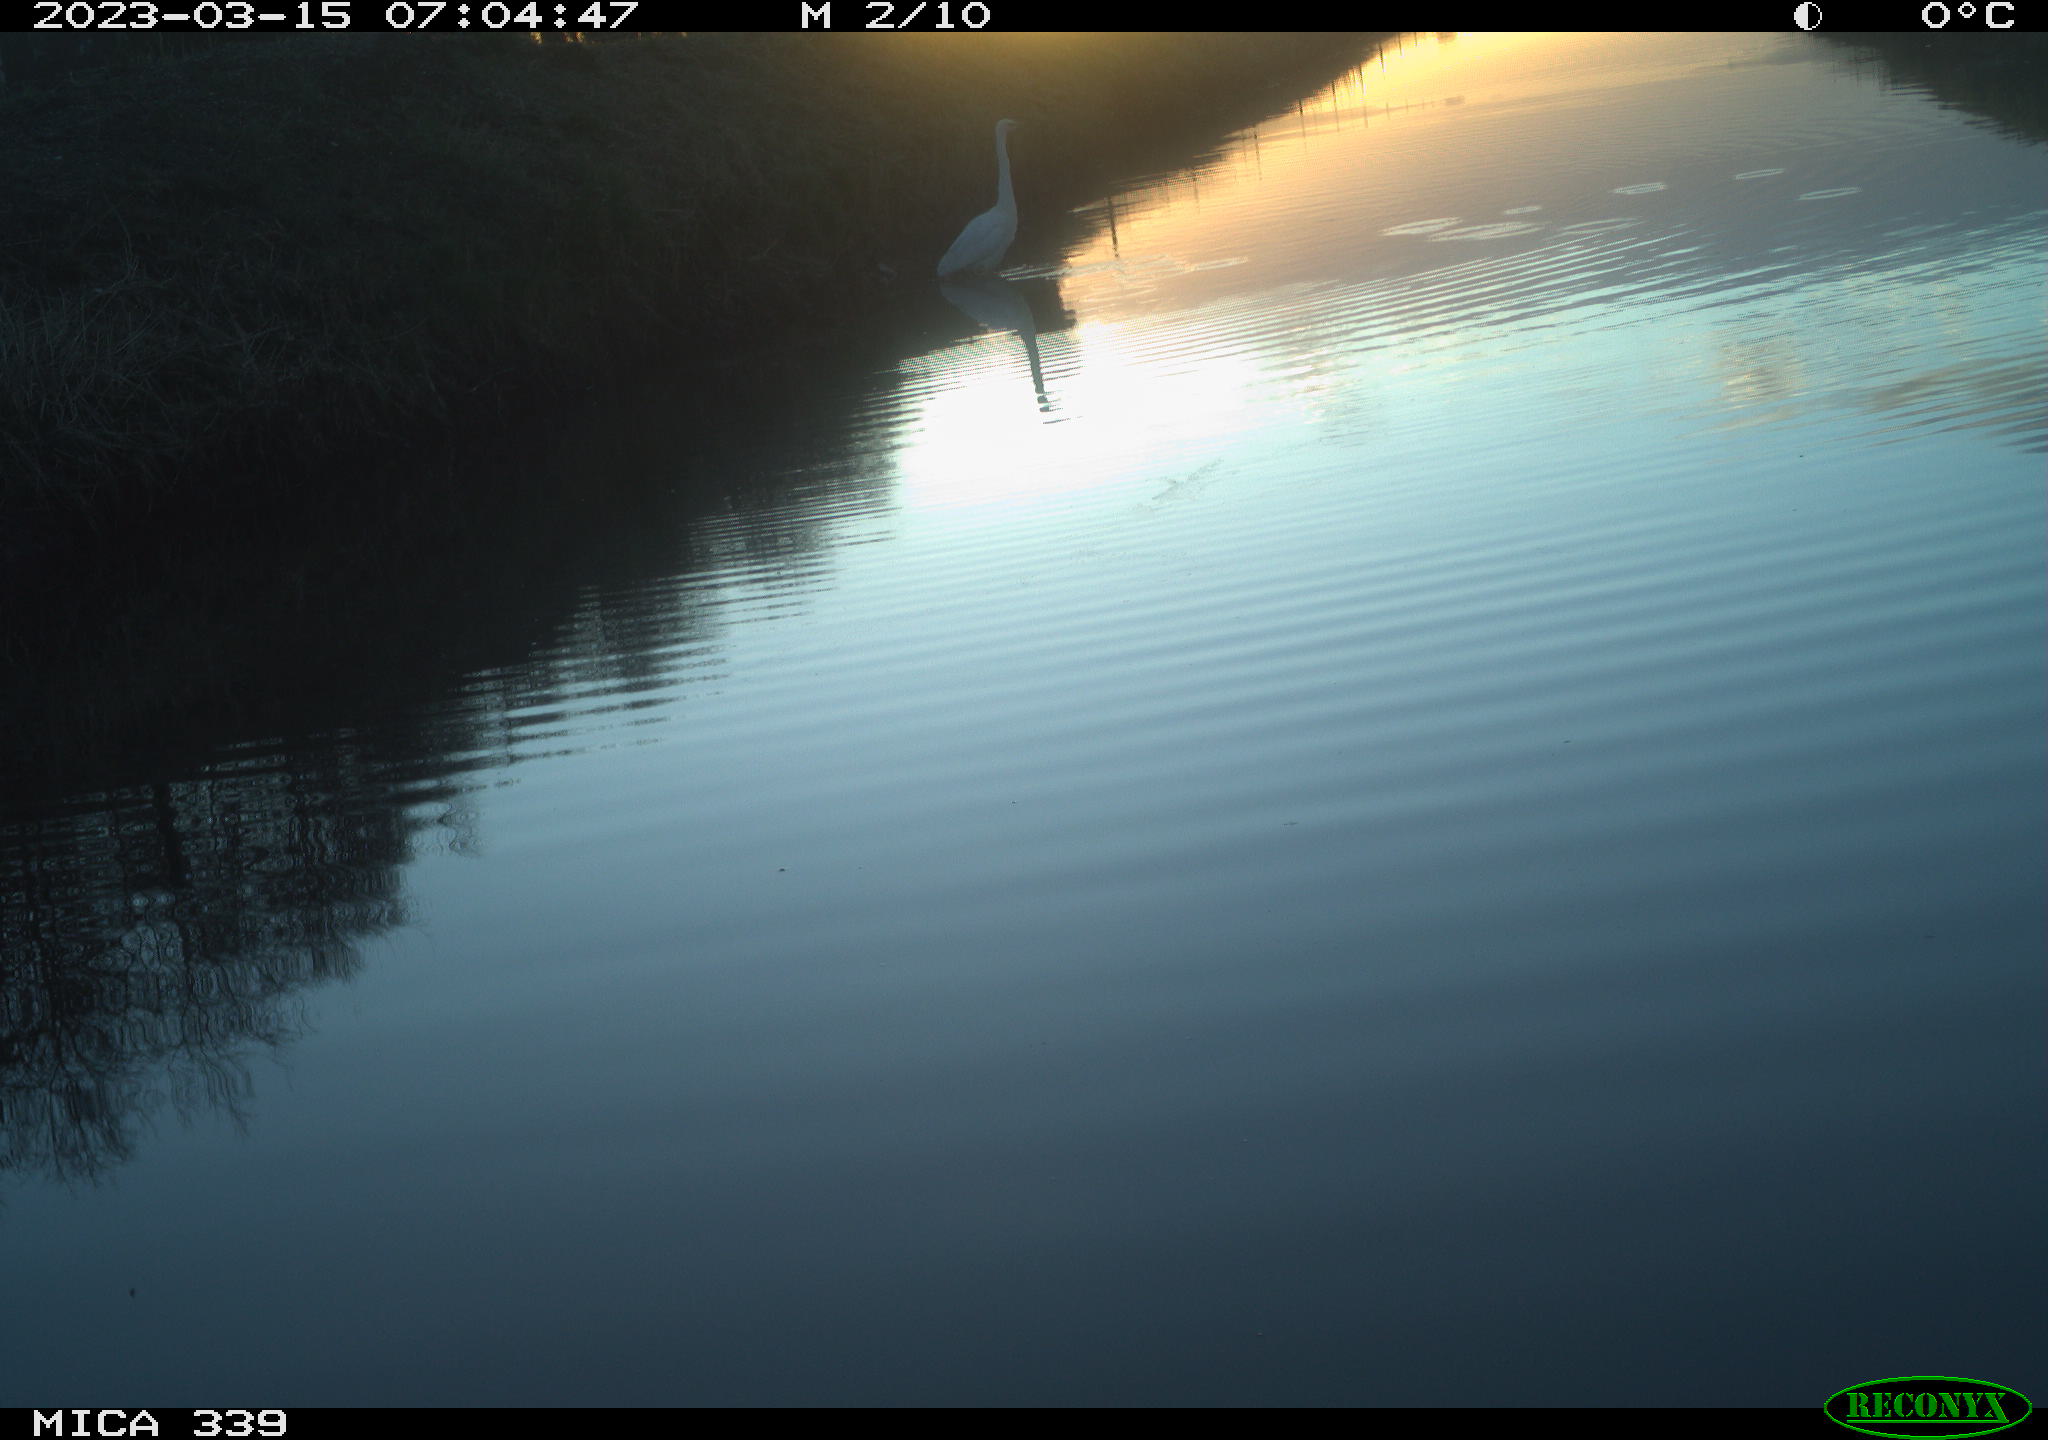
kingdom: Animalia
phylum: Chordata
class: Aves
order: Pelecaniformes
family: Ardeidae
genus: Ardea
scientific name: Ardea alba
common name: Great egret
